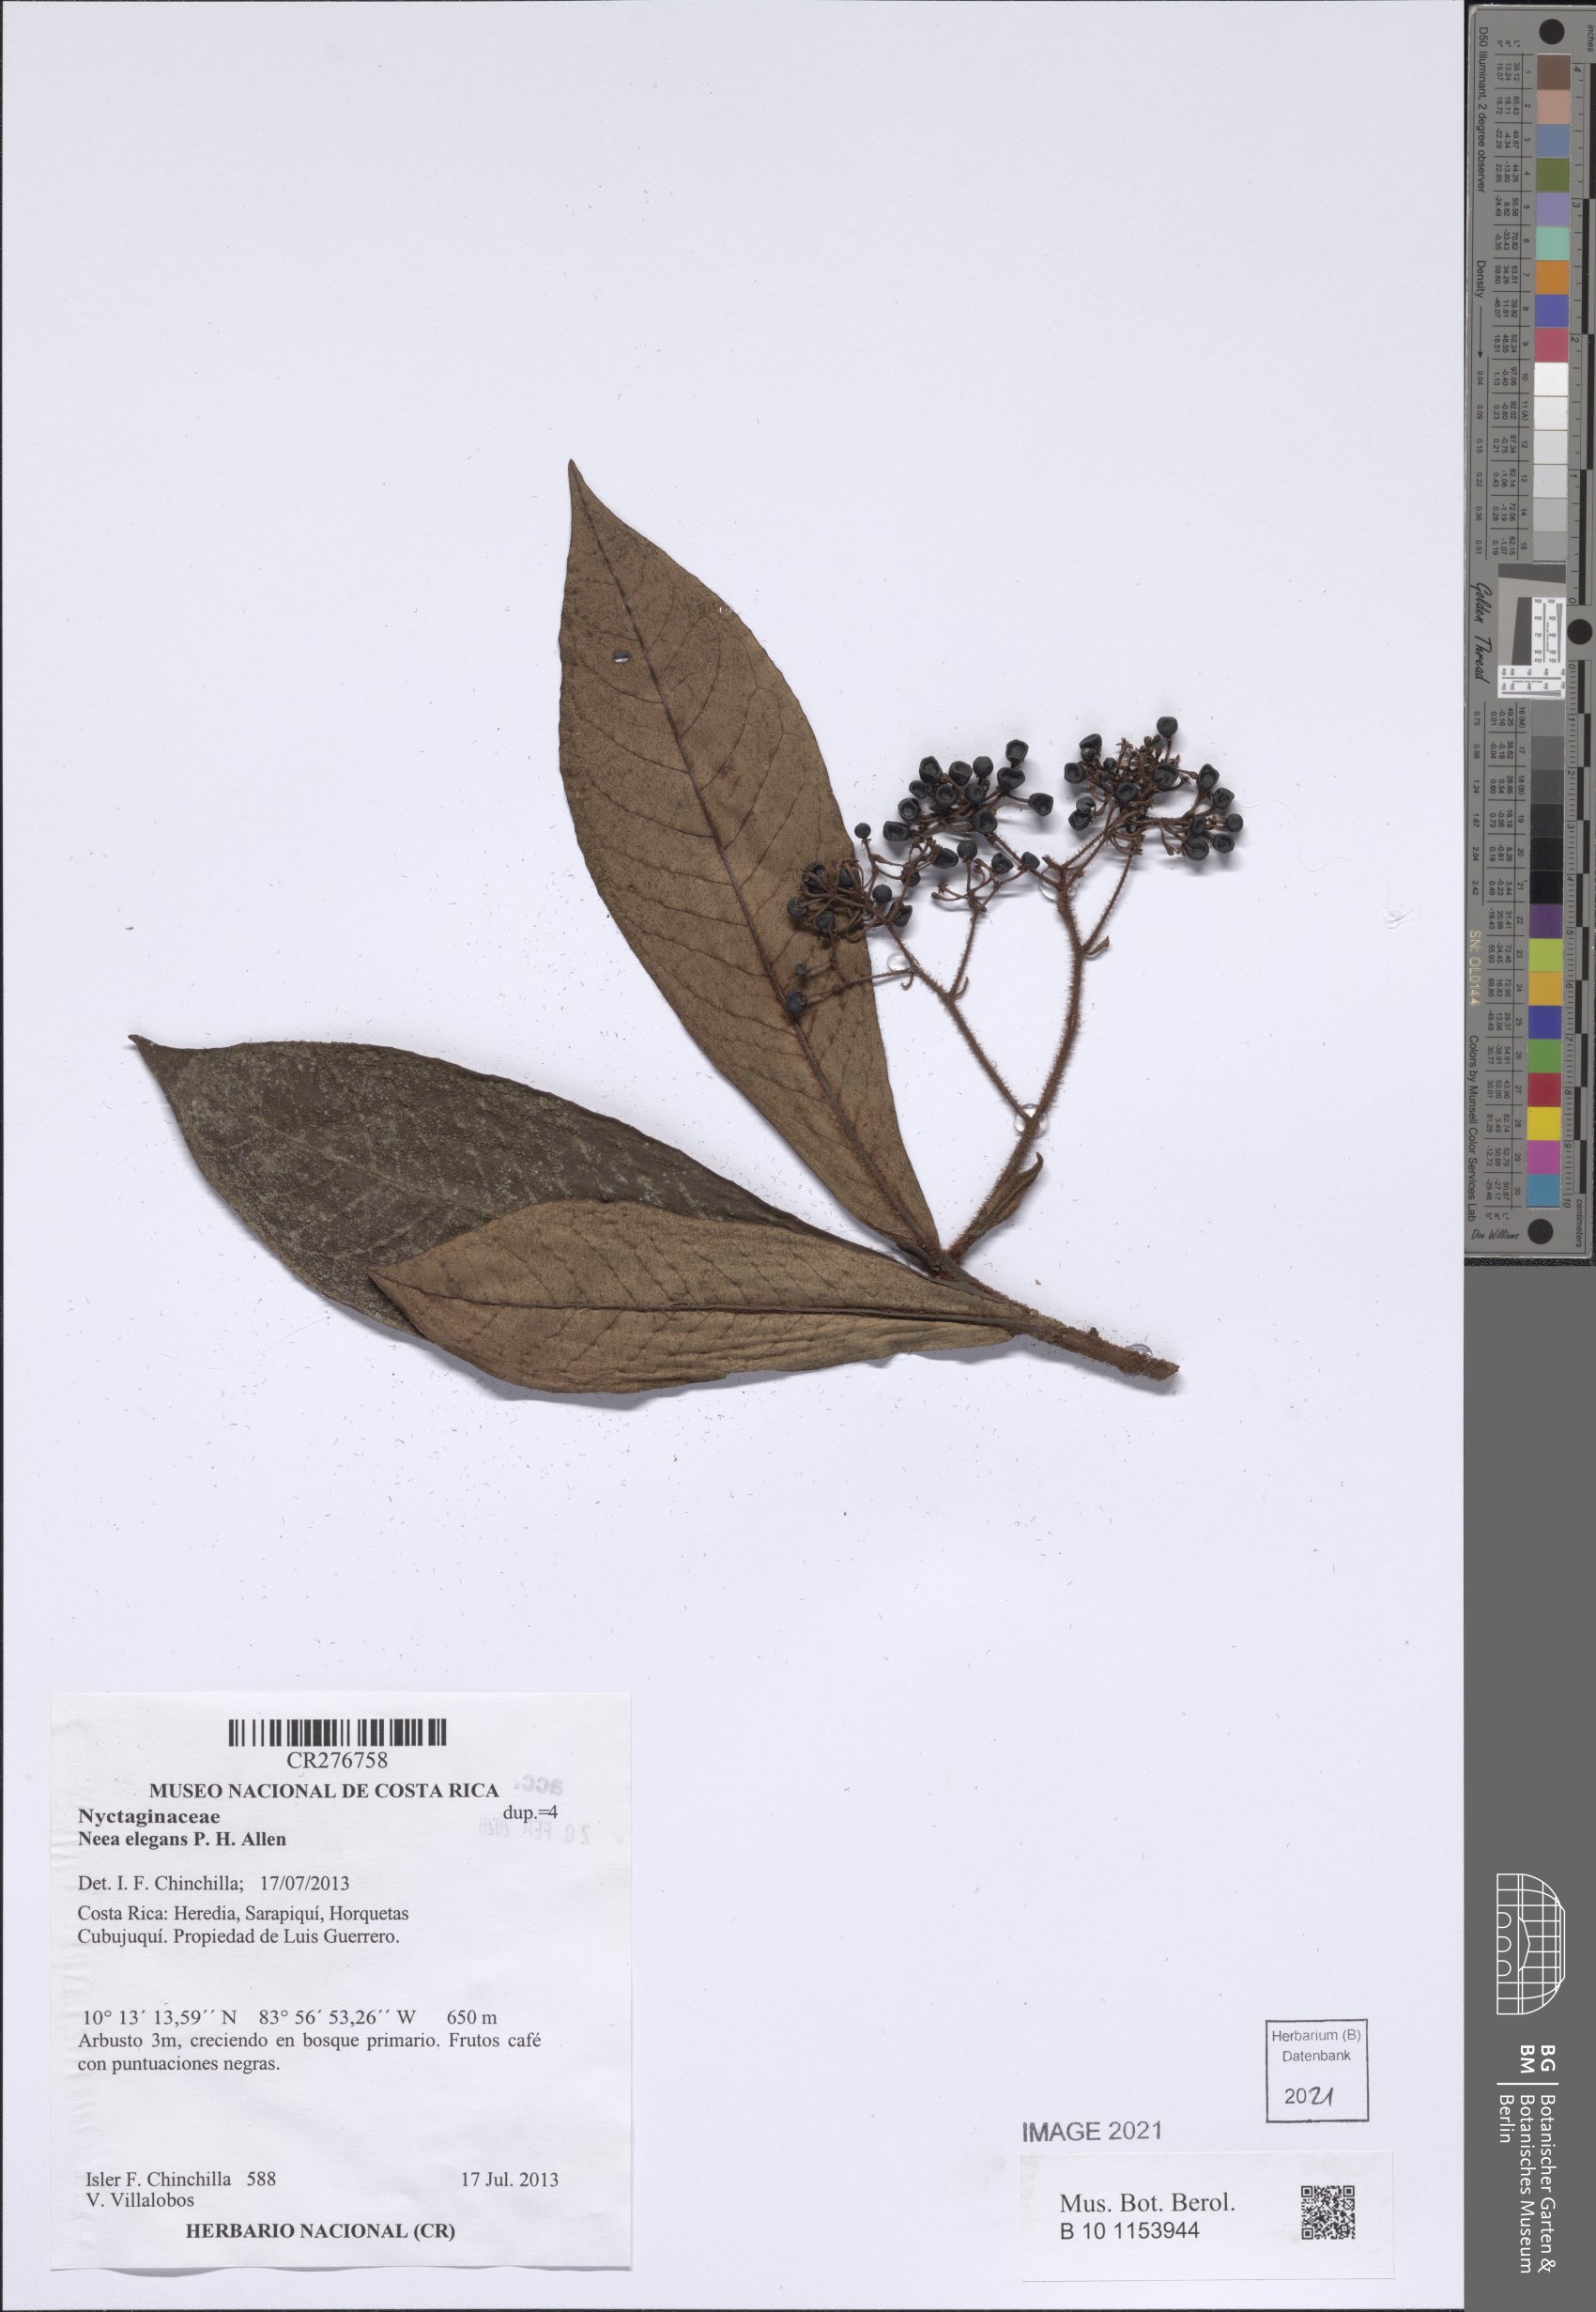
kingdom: Plantae
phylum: Tracheophyta
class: Magnoliopsida
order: Caryophyllales
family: Nyctaginaceae
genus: Neea
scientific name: Neea amplifolia
